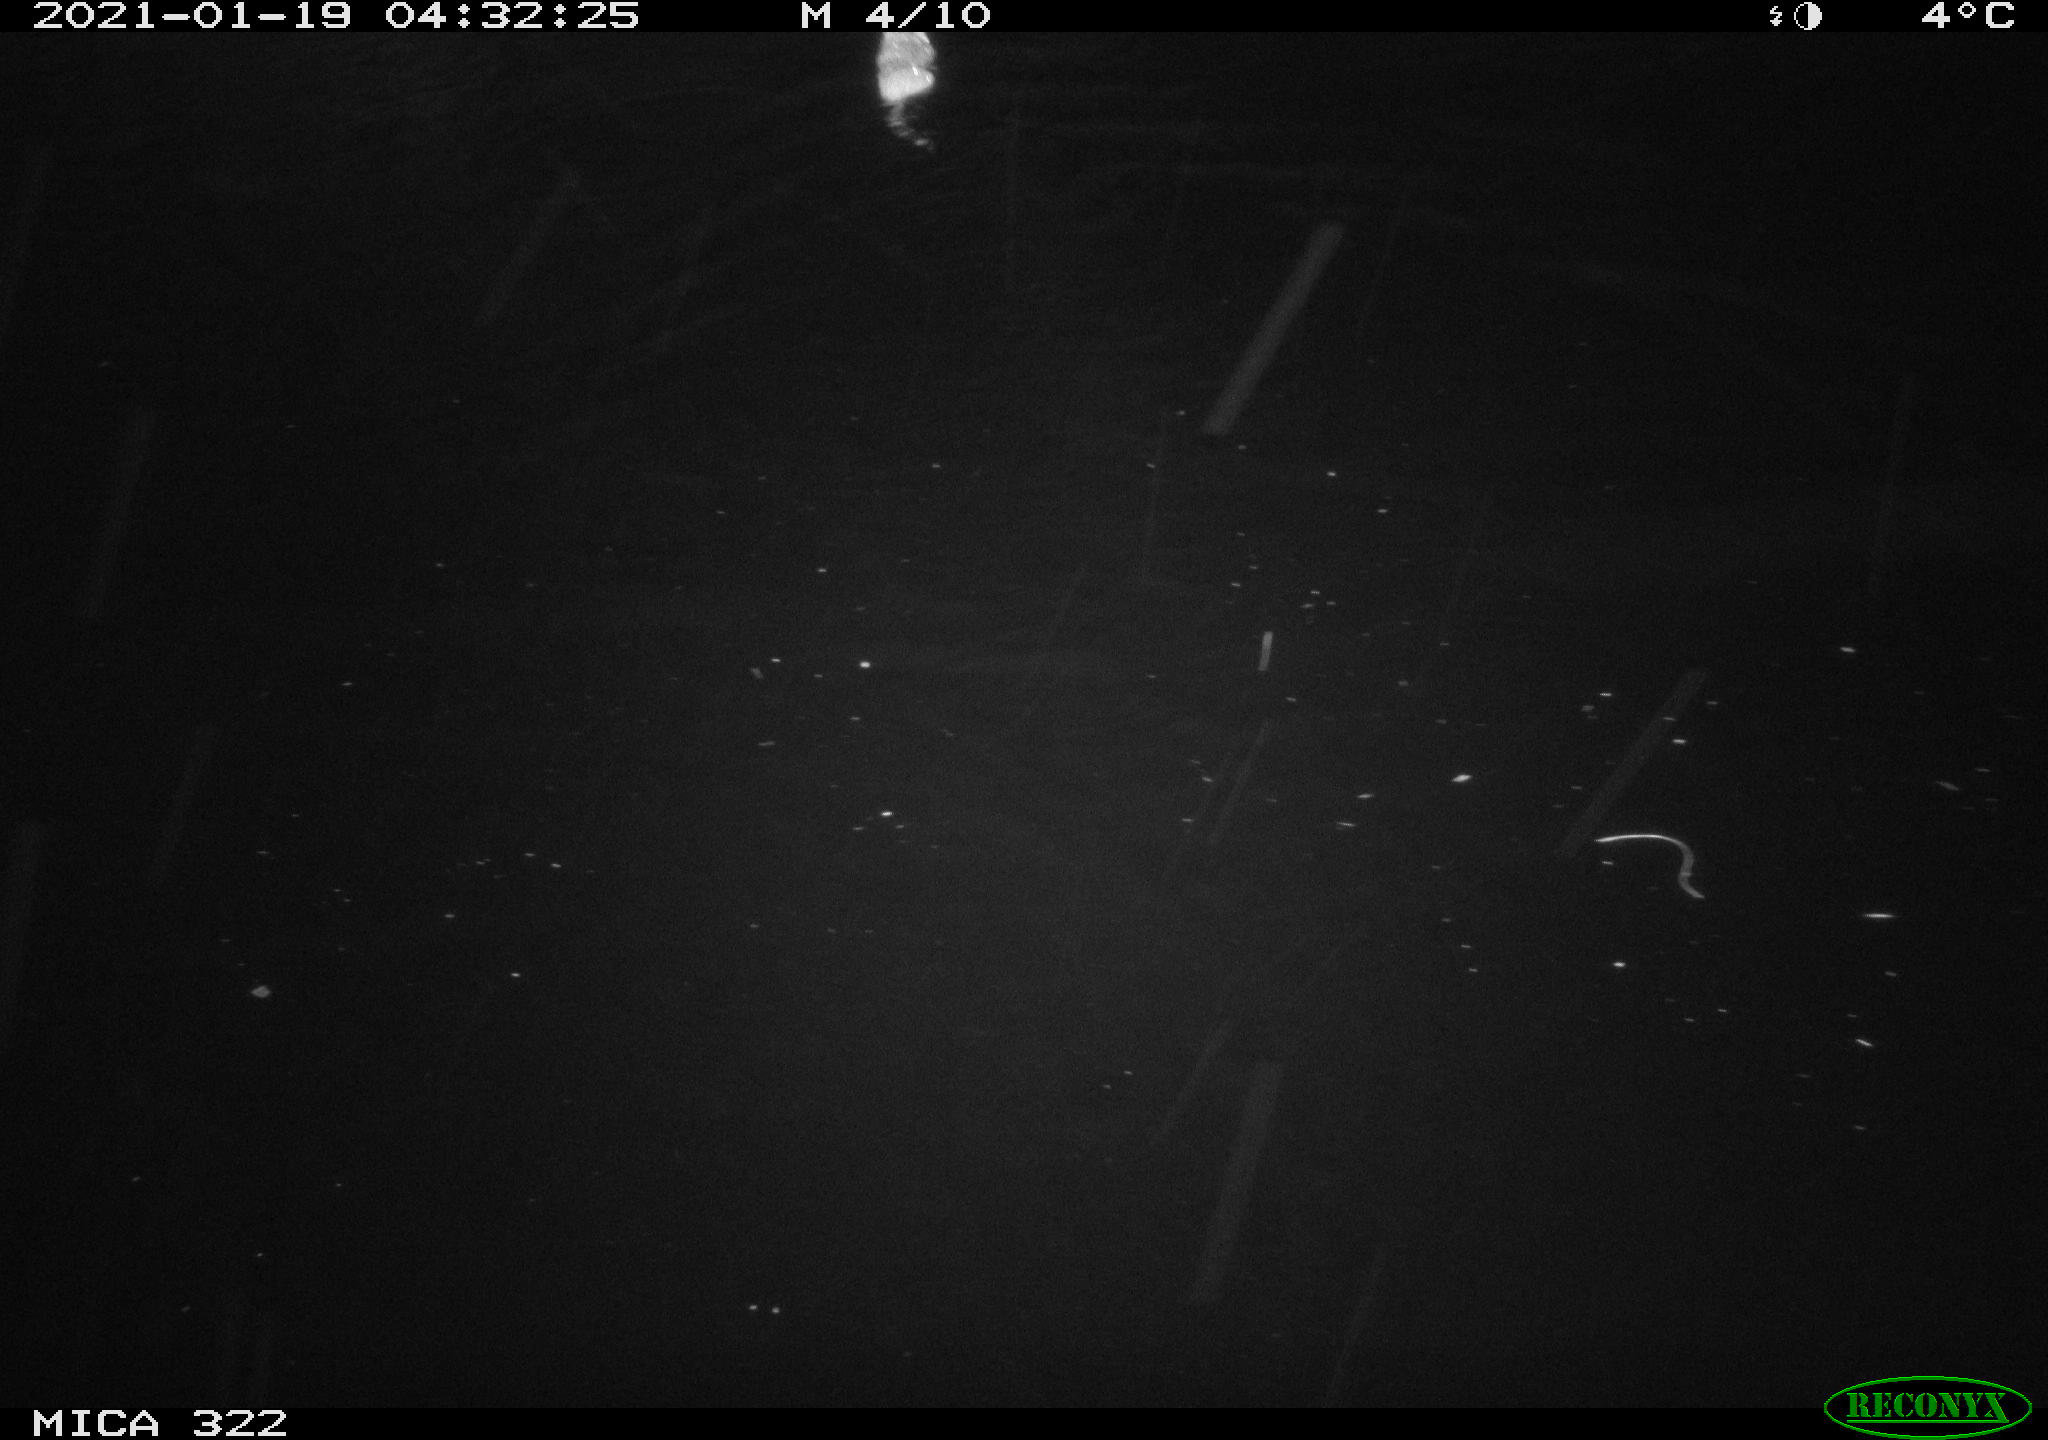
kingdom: Animalia
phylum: Chordata
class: Mammalia
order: Rodentia
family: Muridae
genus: Rattus
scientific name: Rattus norvegicus
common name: Brown rat
